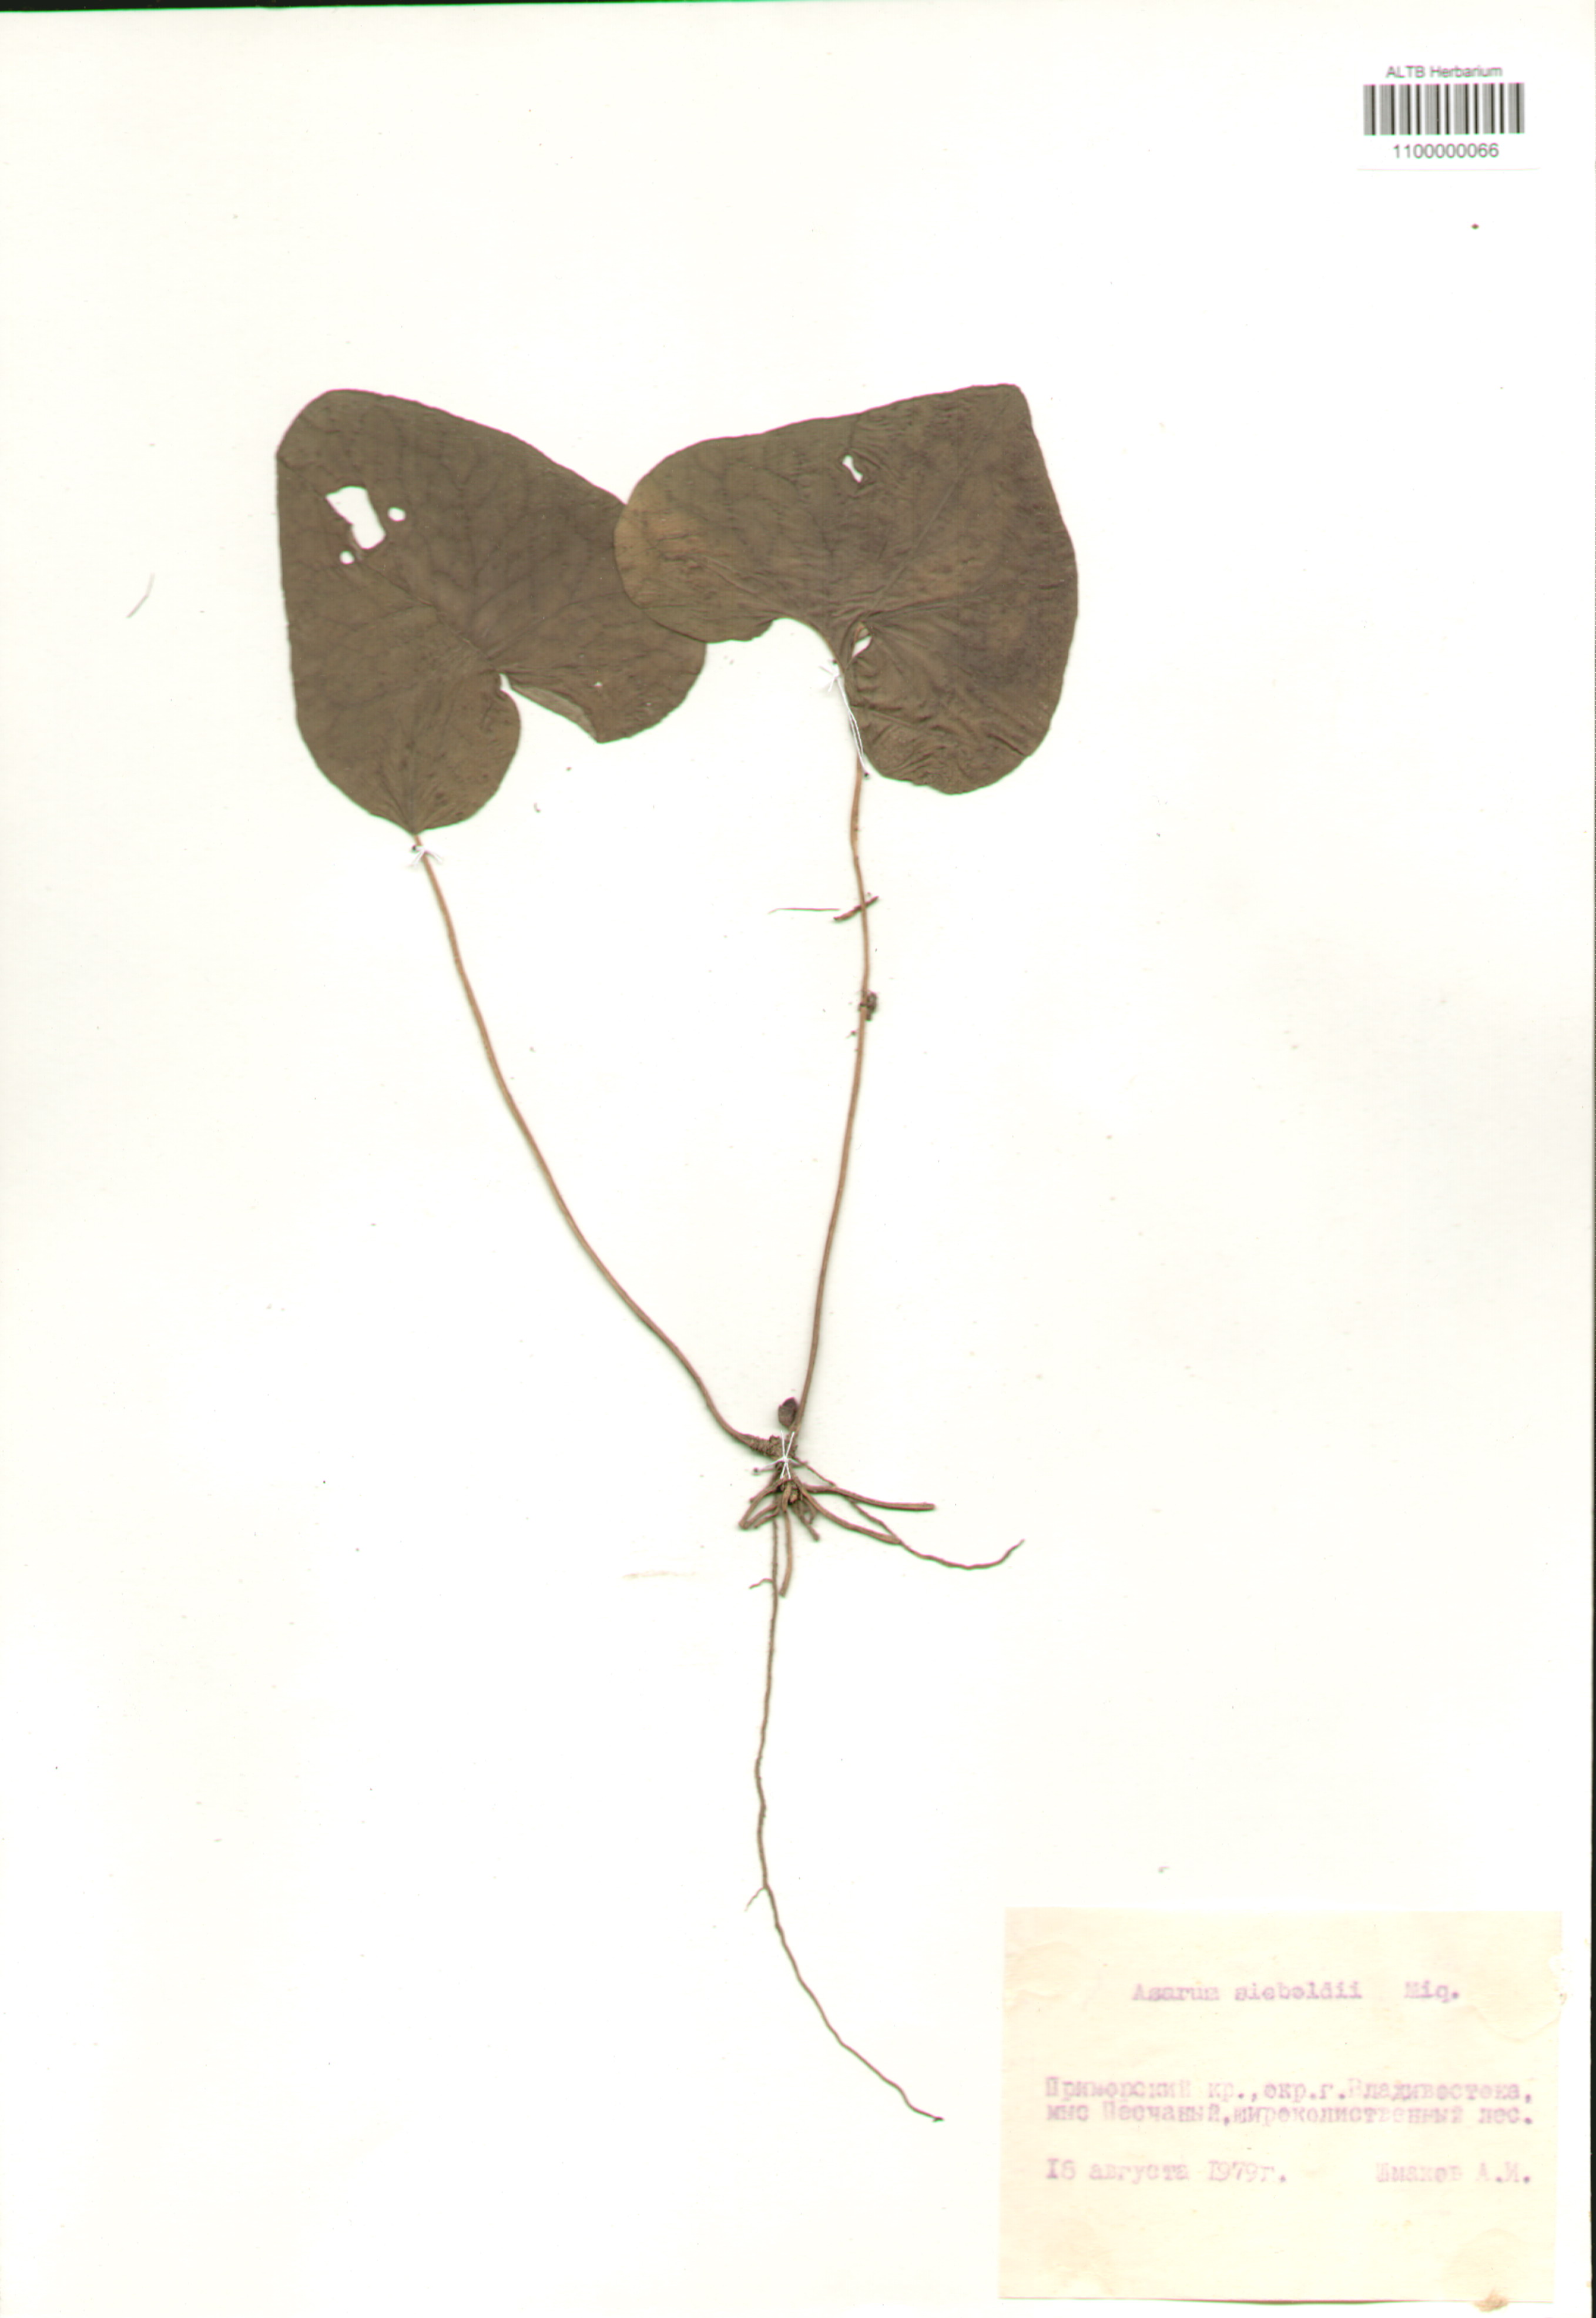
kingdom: Plantae
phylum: Tracheophyta
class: Magnoliopsida
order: Piperales
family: Aristolochiaceae
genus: Asarum
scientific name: Asarum sieboldii
